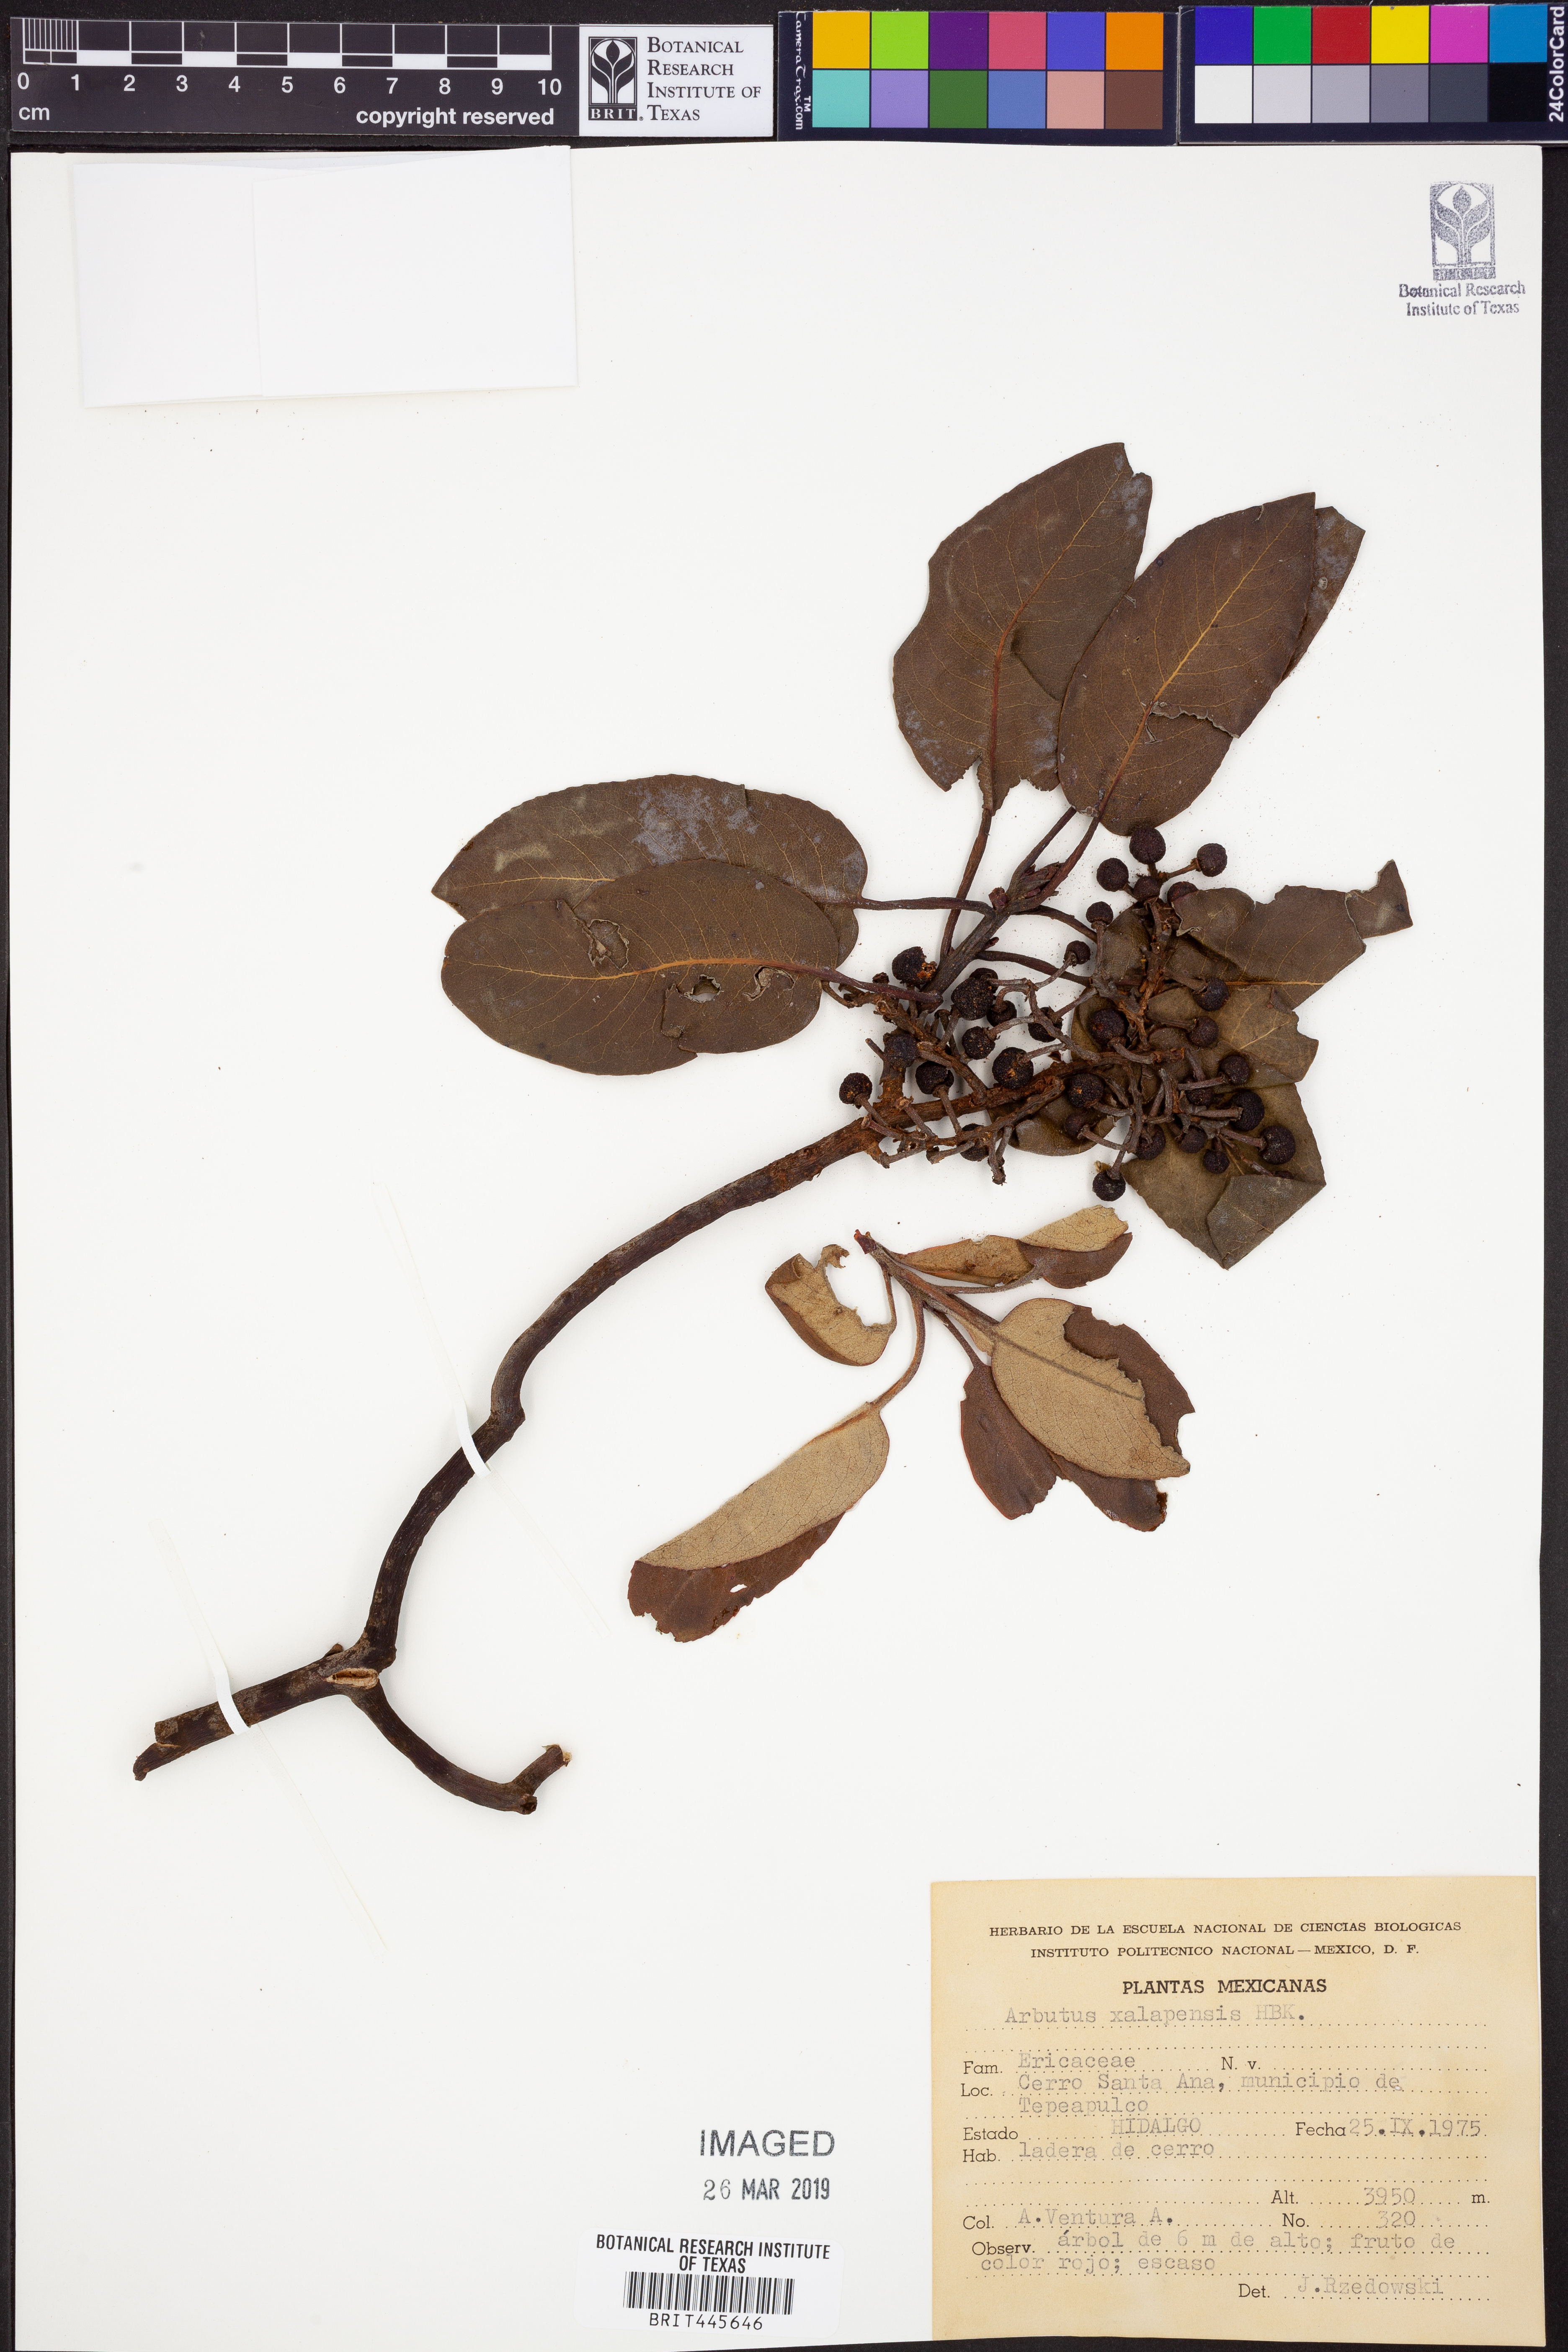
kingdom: Plantae
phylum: Tracheophyta
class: Magnoliopsida
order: Ericales
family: Ericaceae
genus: Arbutus
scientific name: Arbutus xalapensis
